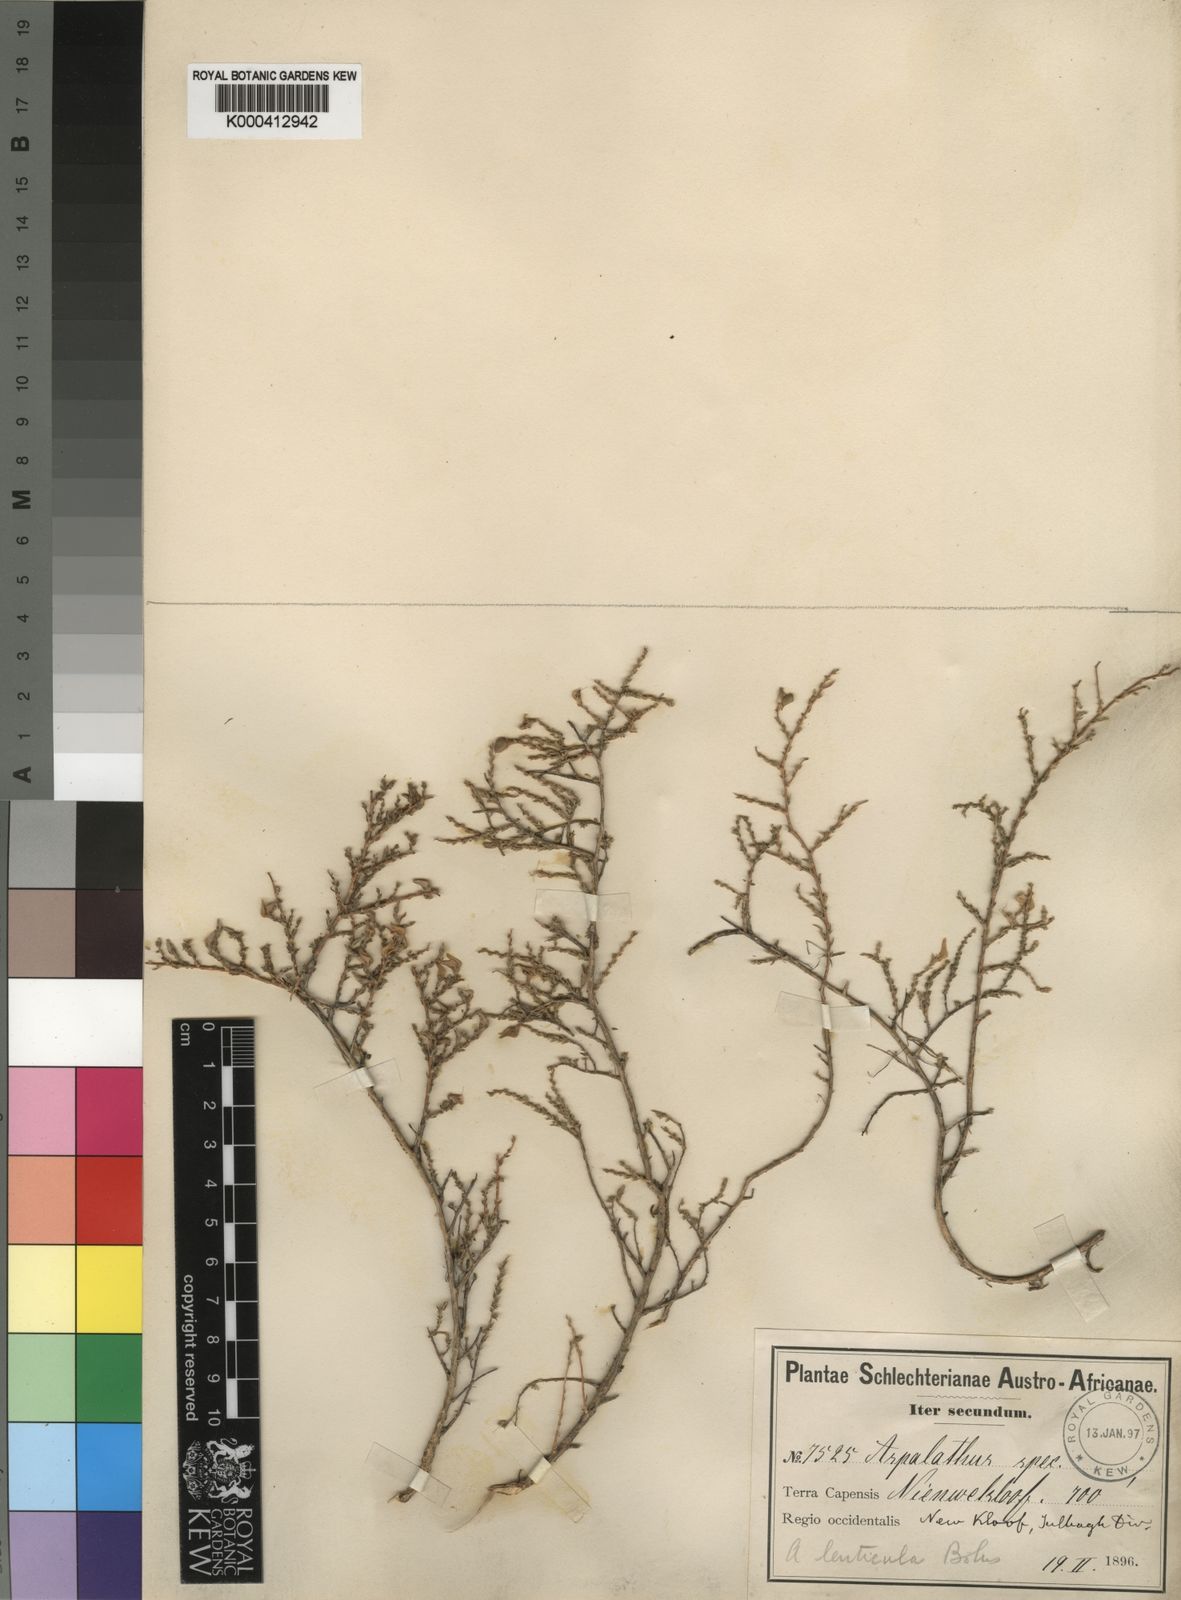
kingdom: Plantae
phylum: Tracheophyta
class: Magnoliopsida
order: Fabales
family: Fabaceae
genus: Aspalathus
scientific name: Aspalathus lenticula
